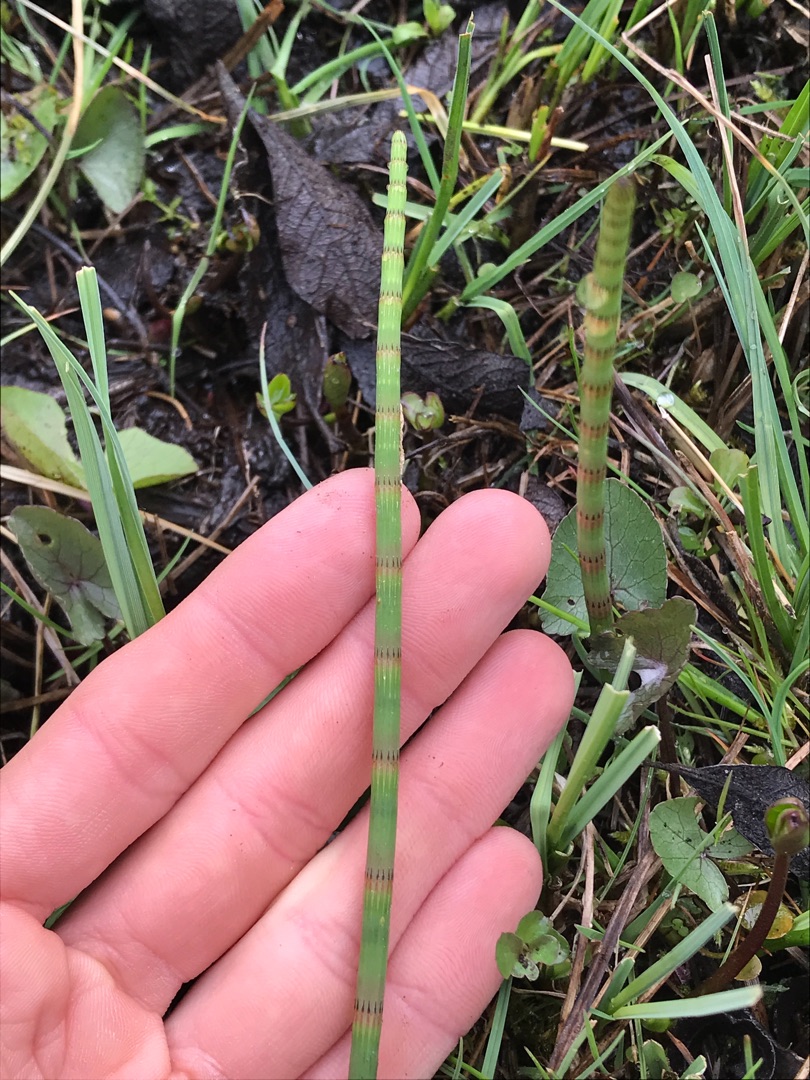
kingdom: Plantae
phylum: Tracheophyta
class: Polypodiopsida
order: Equisetales
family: Equisetaceae
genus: Equisetum
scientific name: Equisetum fluviatile
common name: Dynd-padderok
